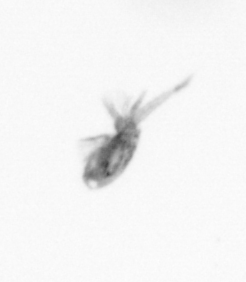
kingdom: Animalia
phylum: Arthropoda
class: Copepoda
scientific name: Copepoda
